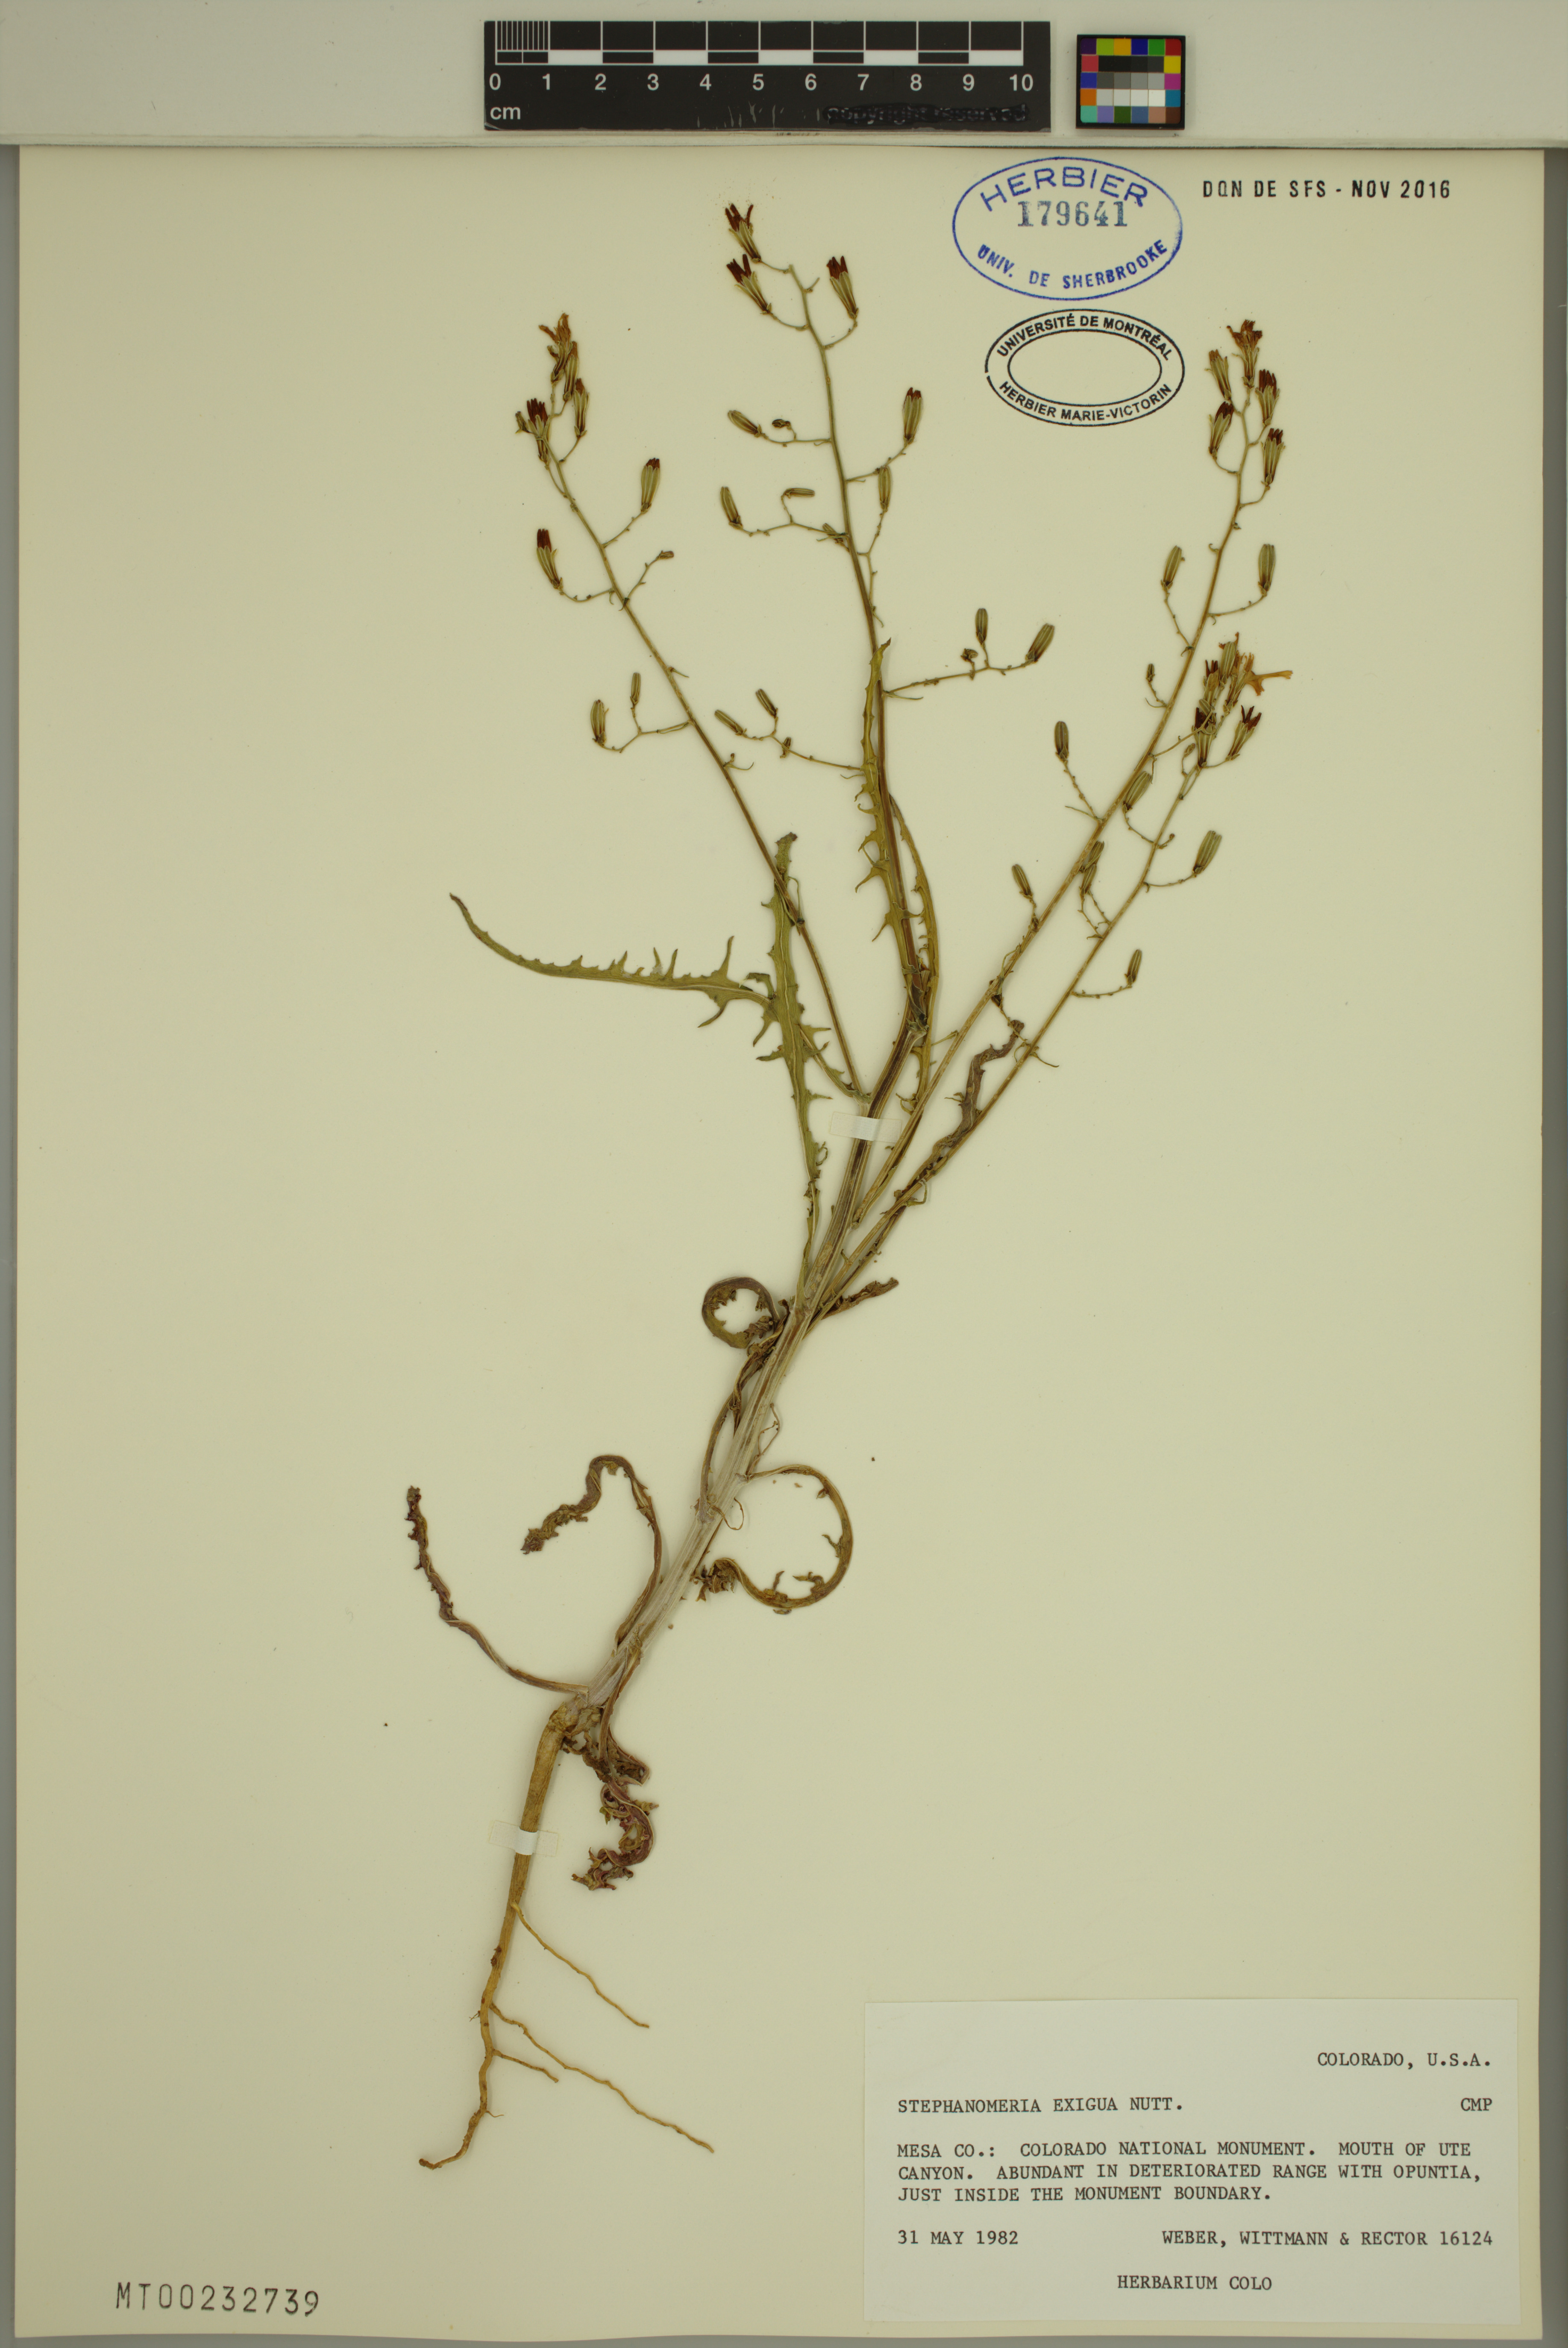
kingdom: Plantae
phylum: Tracheophyta
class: Magnoliopsida
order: Asterales
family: Asteraceae
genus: Stephanomeria
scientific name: Stephanomeria exigua
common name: Small wirelettuce
